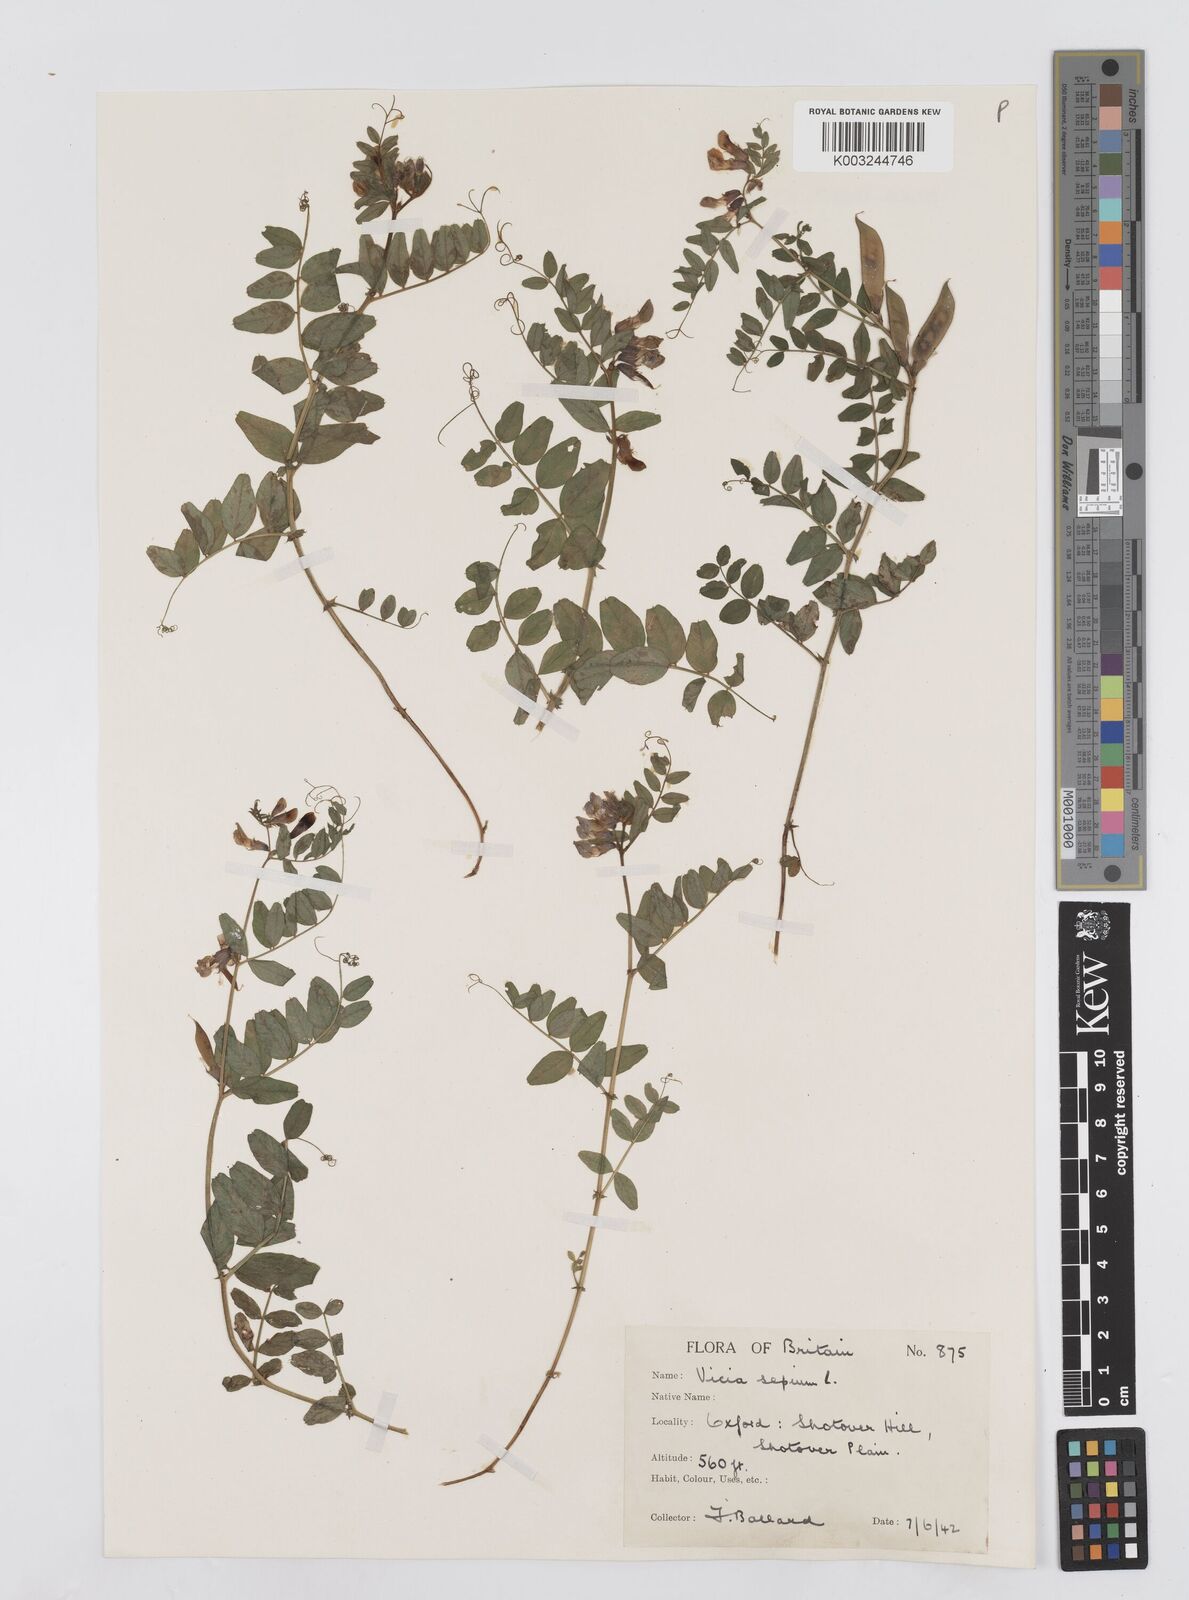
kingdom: Plantae
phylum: Tracheophyta
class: Magnoliopsida
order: Fabales
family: Fabaceae
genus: Vicia
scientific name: Vicia sepium
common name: Bush vetch
